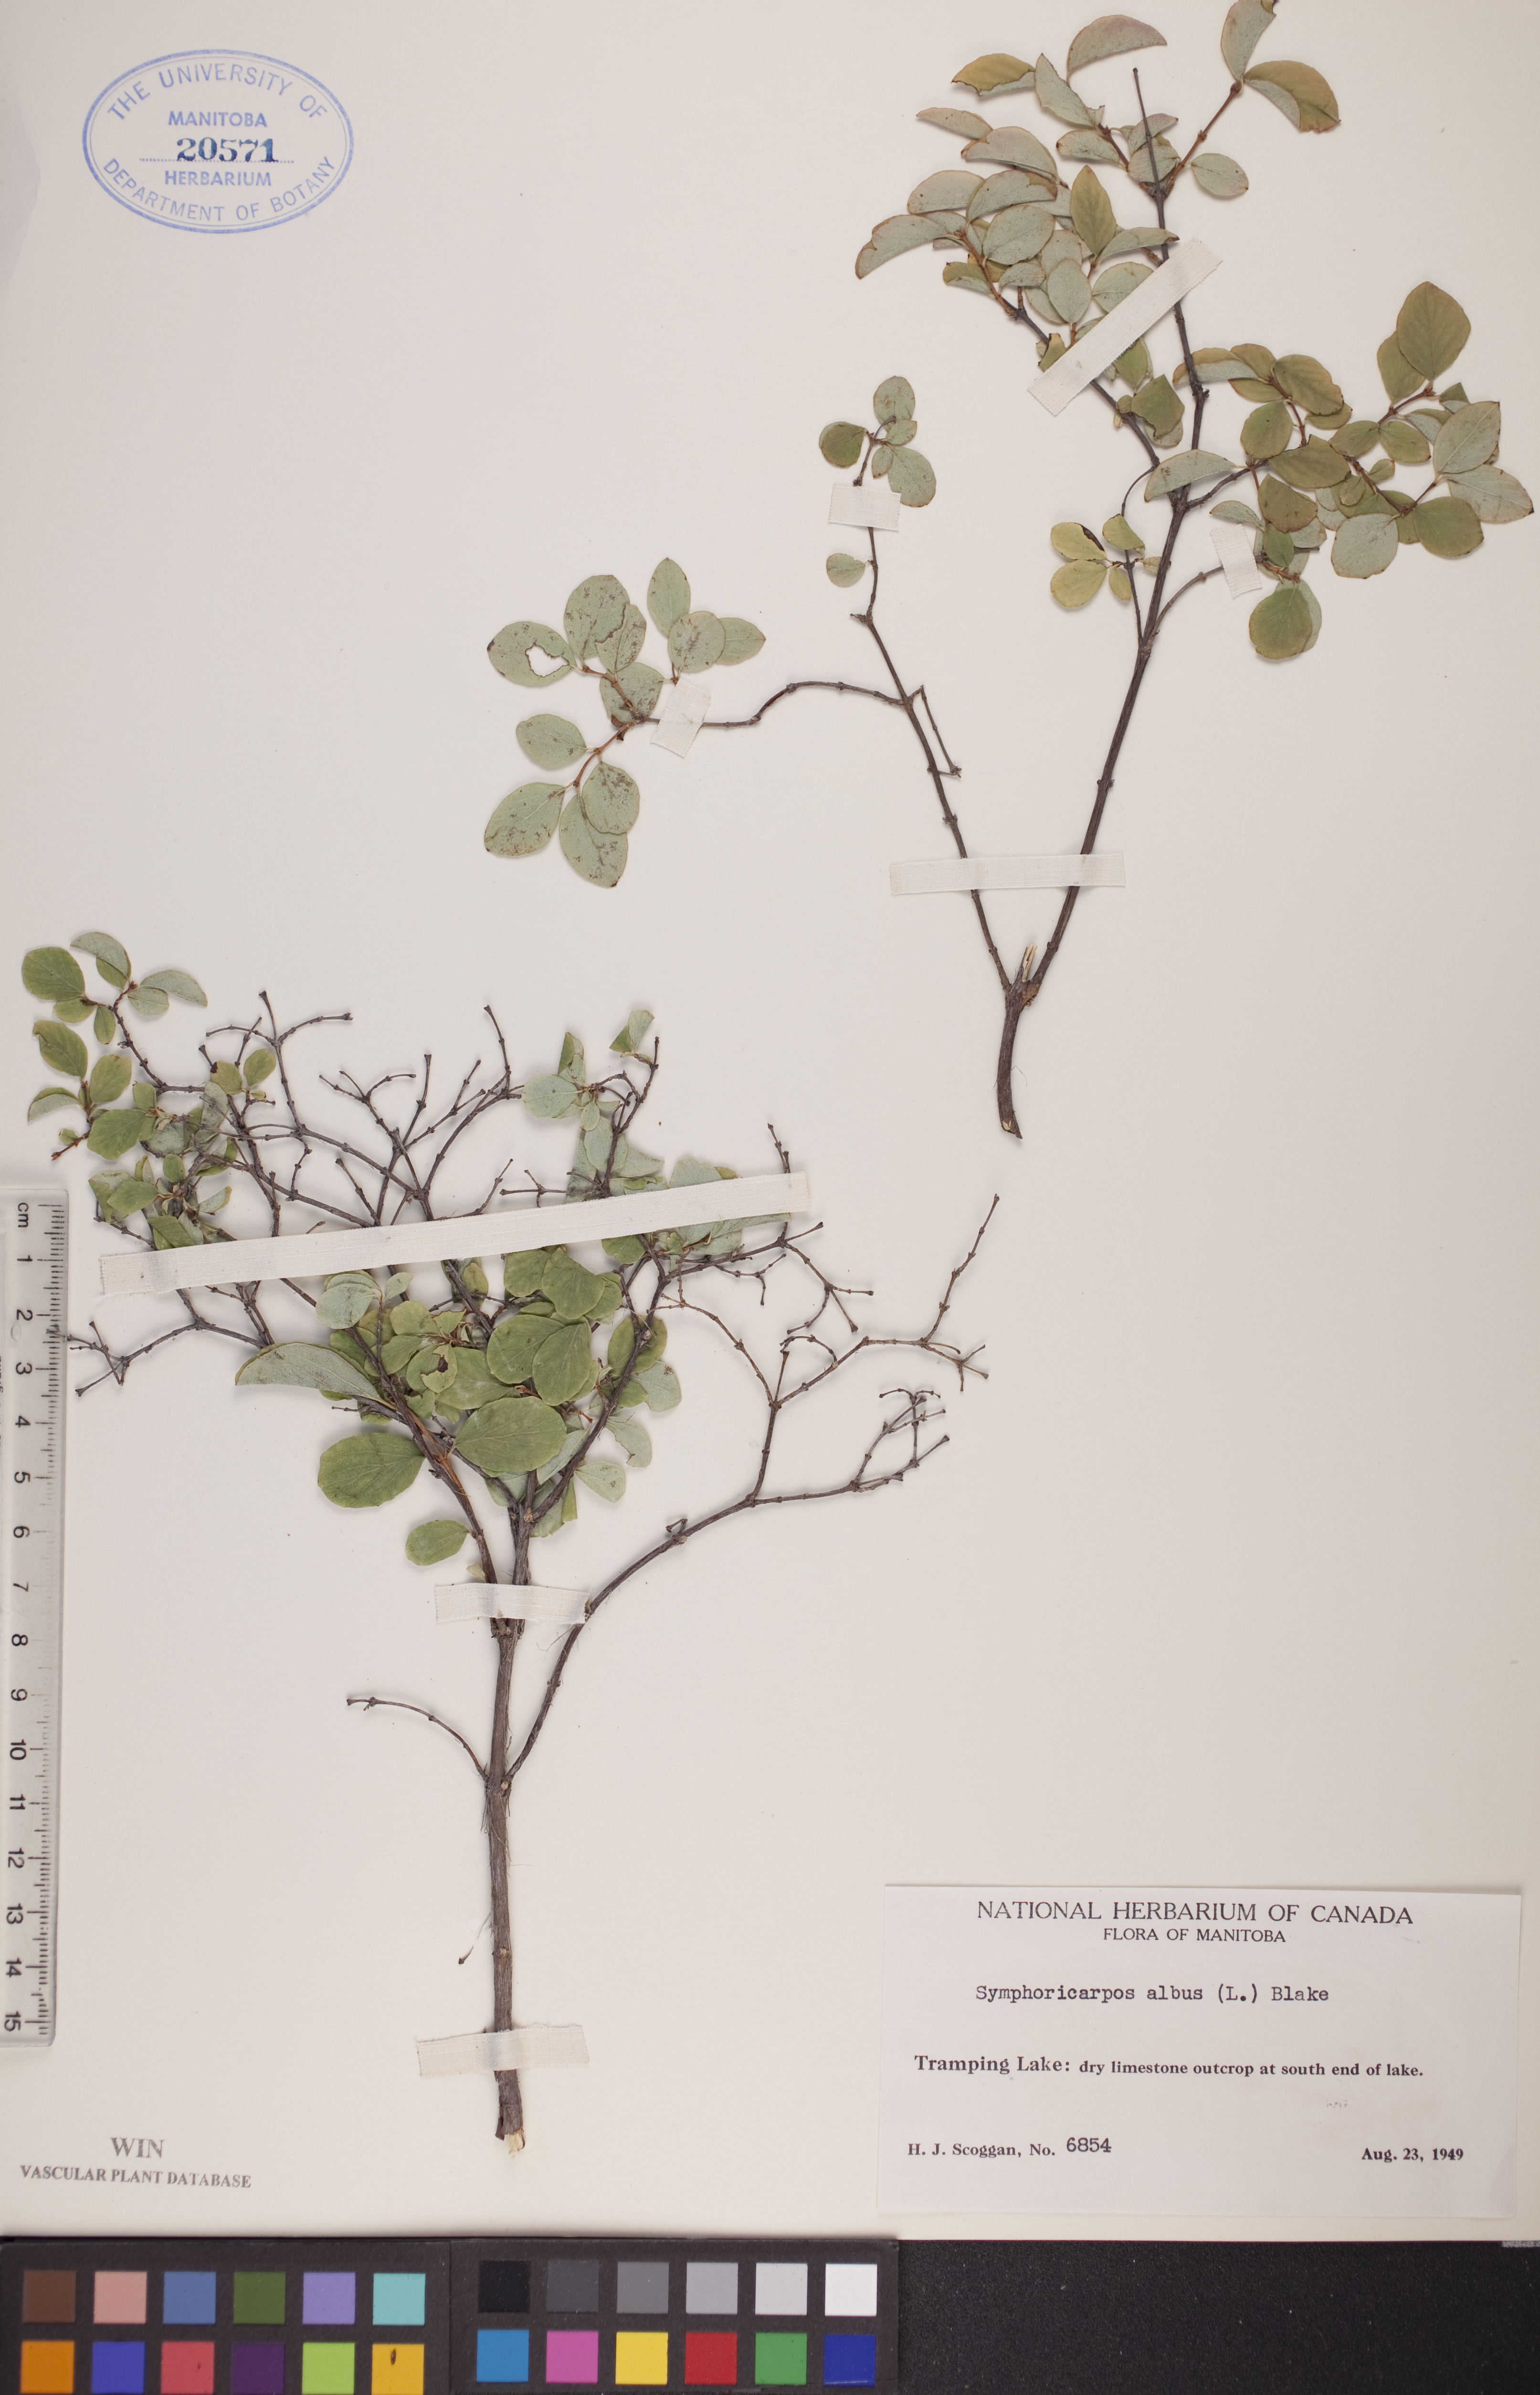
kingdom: Plantae
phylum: Tracheophyta
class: Magnoliopsida
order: Dipsacales
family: Caprifoliaceae
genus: Symphoricarpos
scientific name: Symphoricarpos albus
